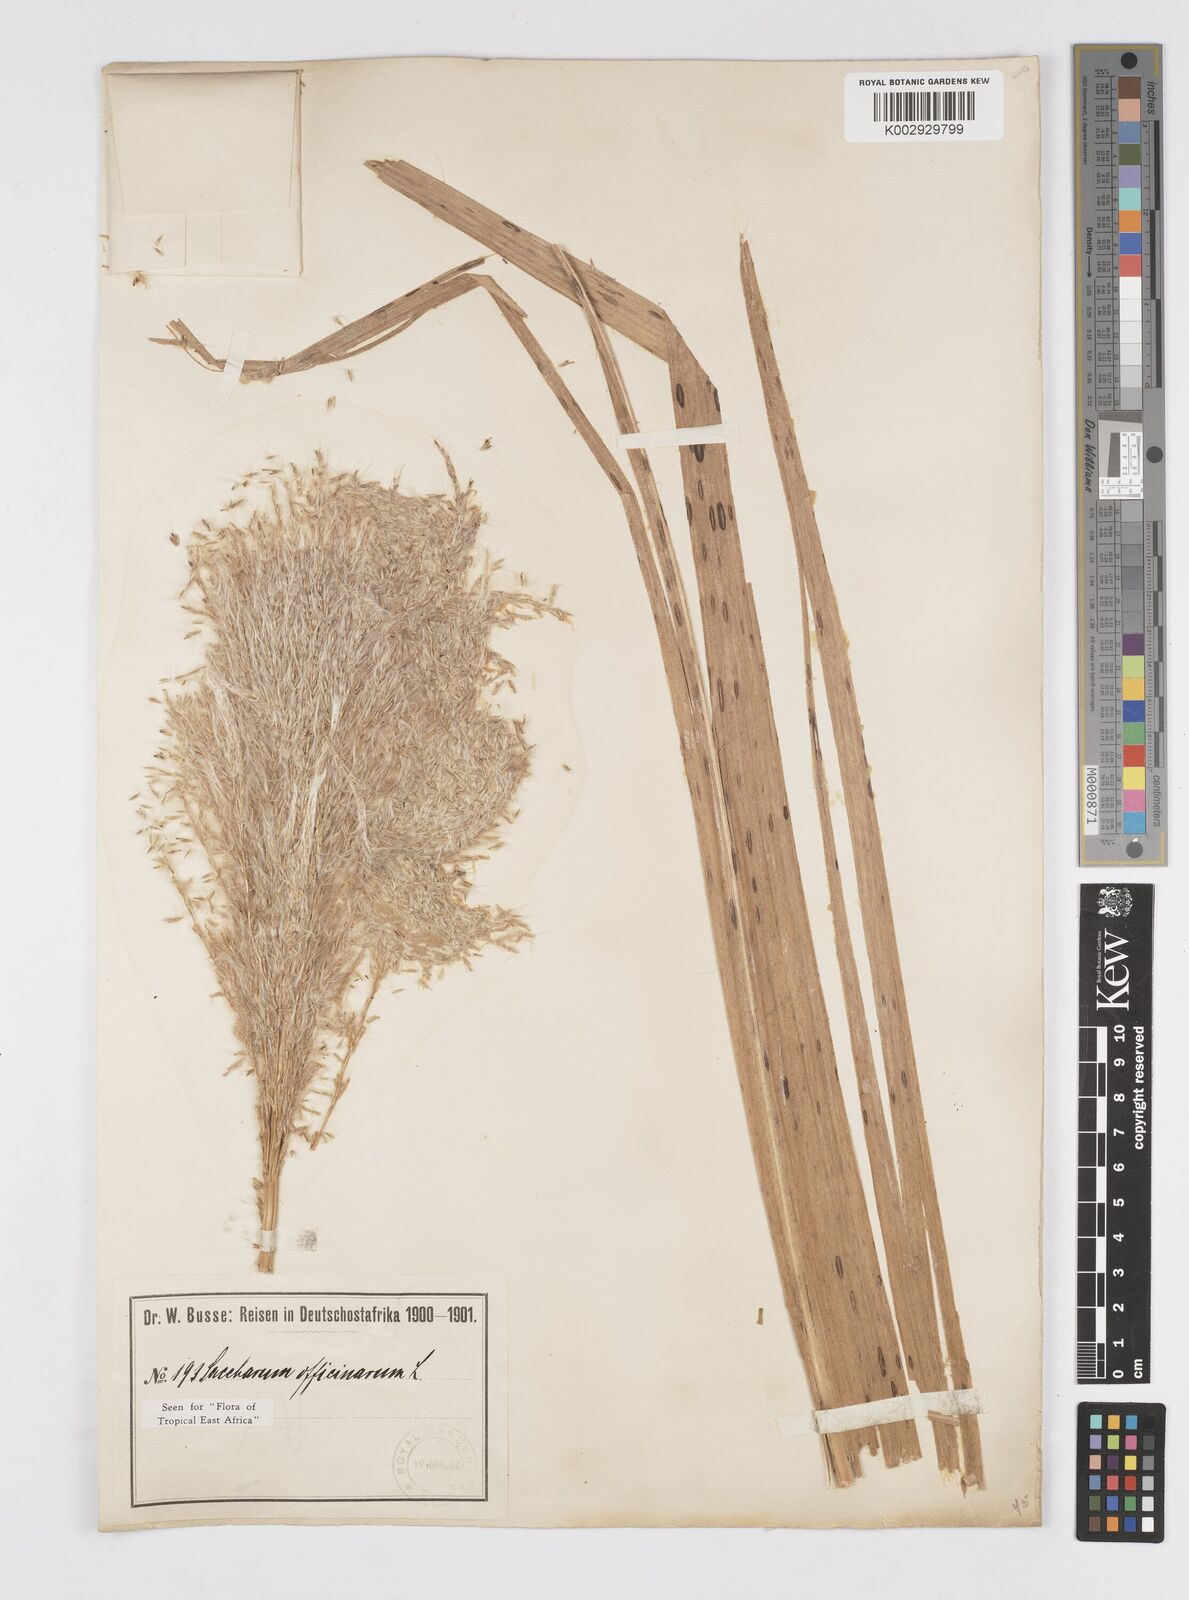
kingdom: Plantae
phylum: Tracheophyta
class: Liliopsida
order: Poales
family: Poaceae
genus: Saccharum
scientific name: Saccharum officinarum
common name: Sugarcane
